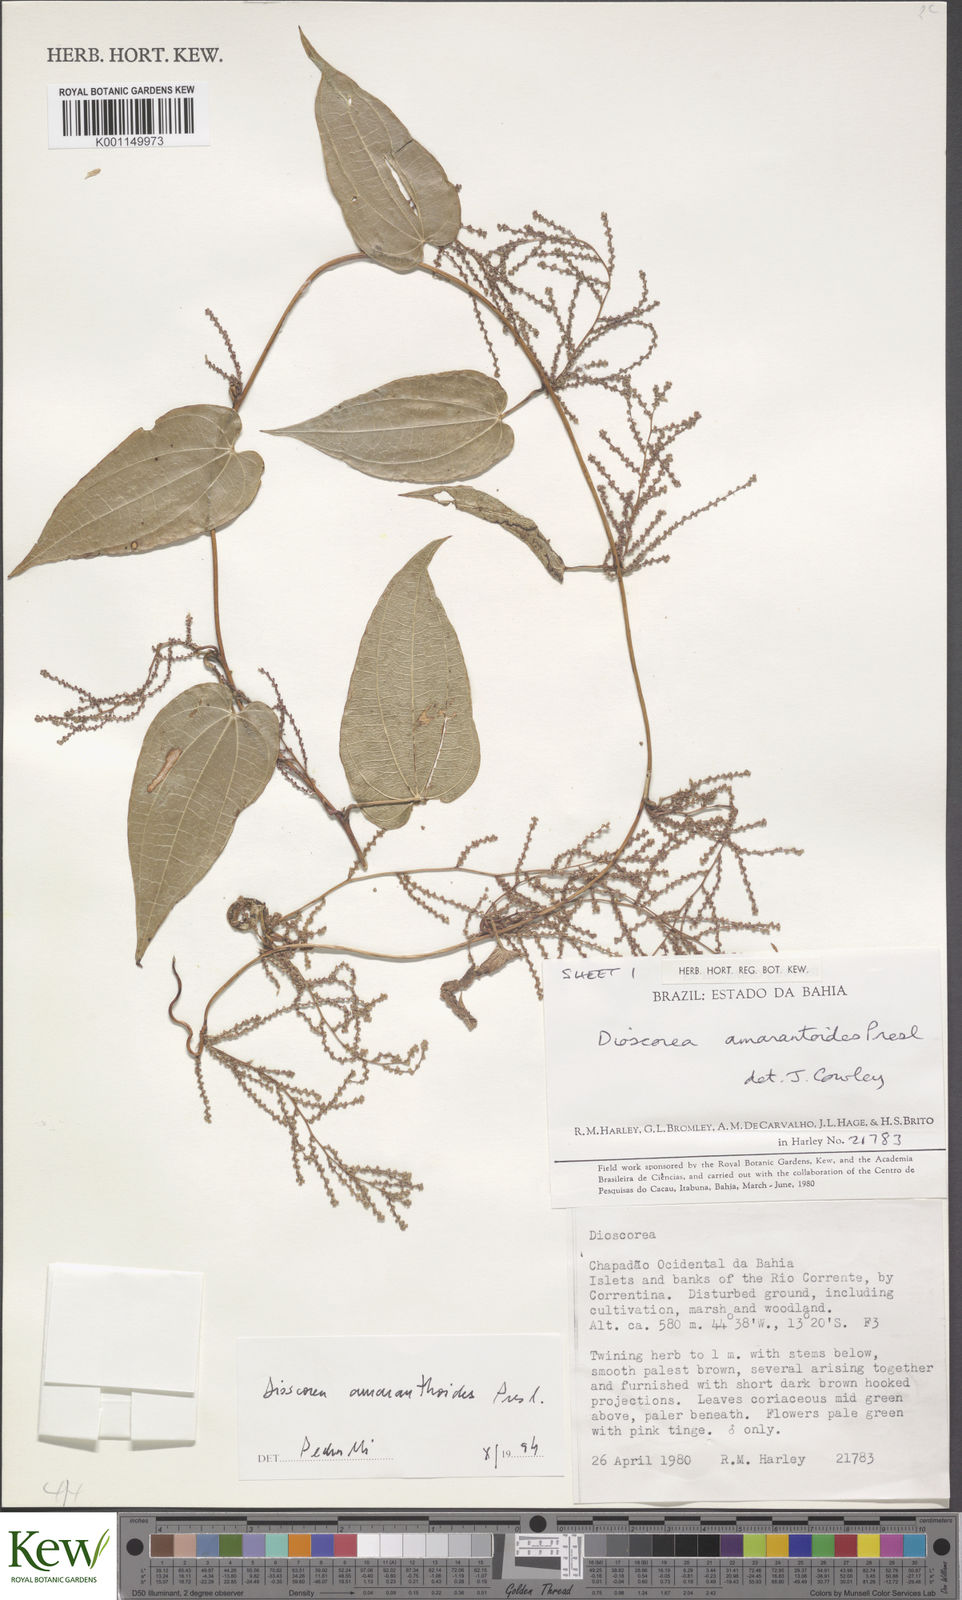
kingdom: Plantae
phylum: Tracheophyta
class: Liliopsida
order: Dioscoreales
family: Dioscoreaceae
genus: Dioscorea
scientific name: Dioscorea amaranthoides
